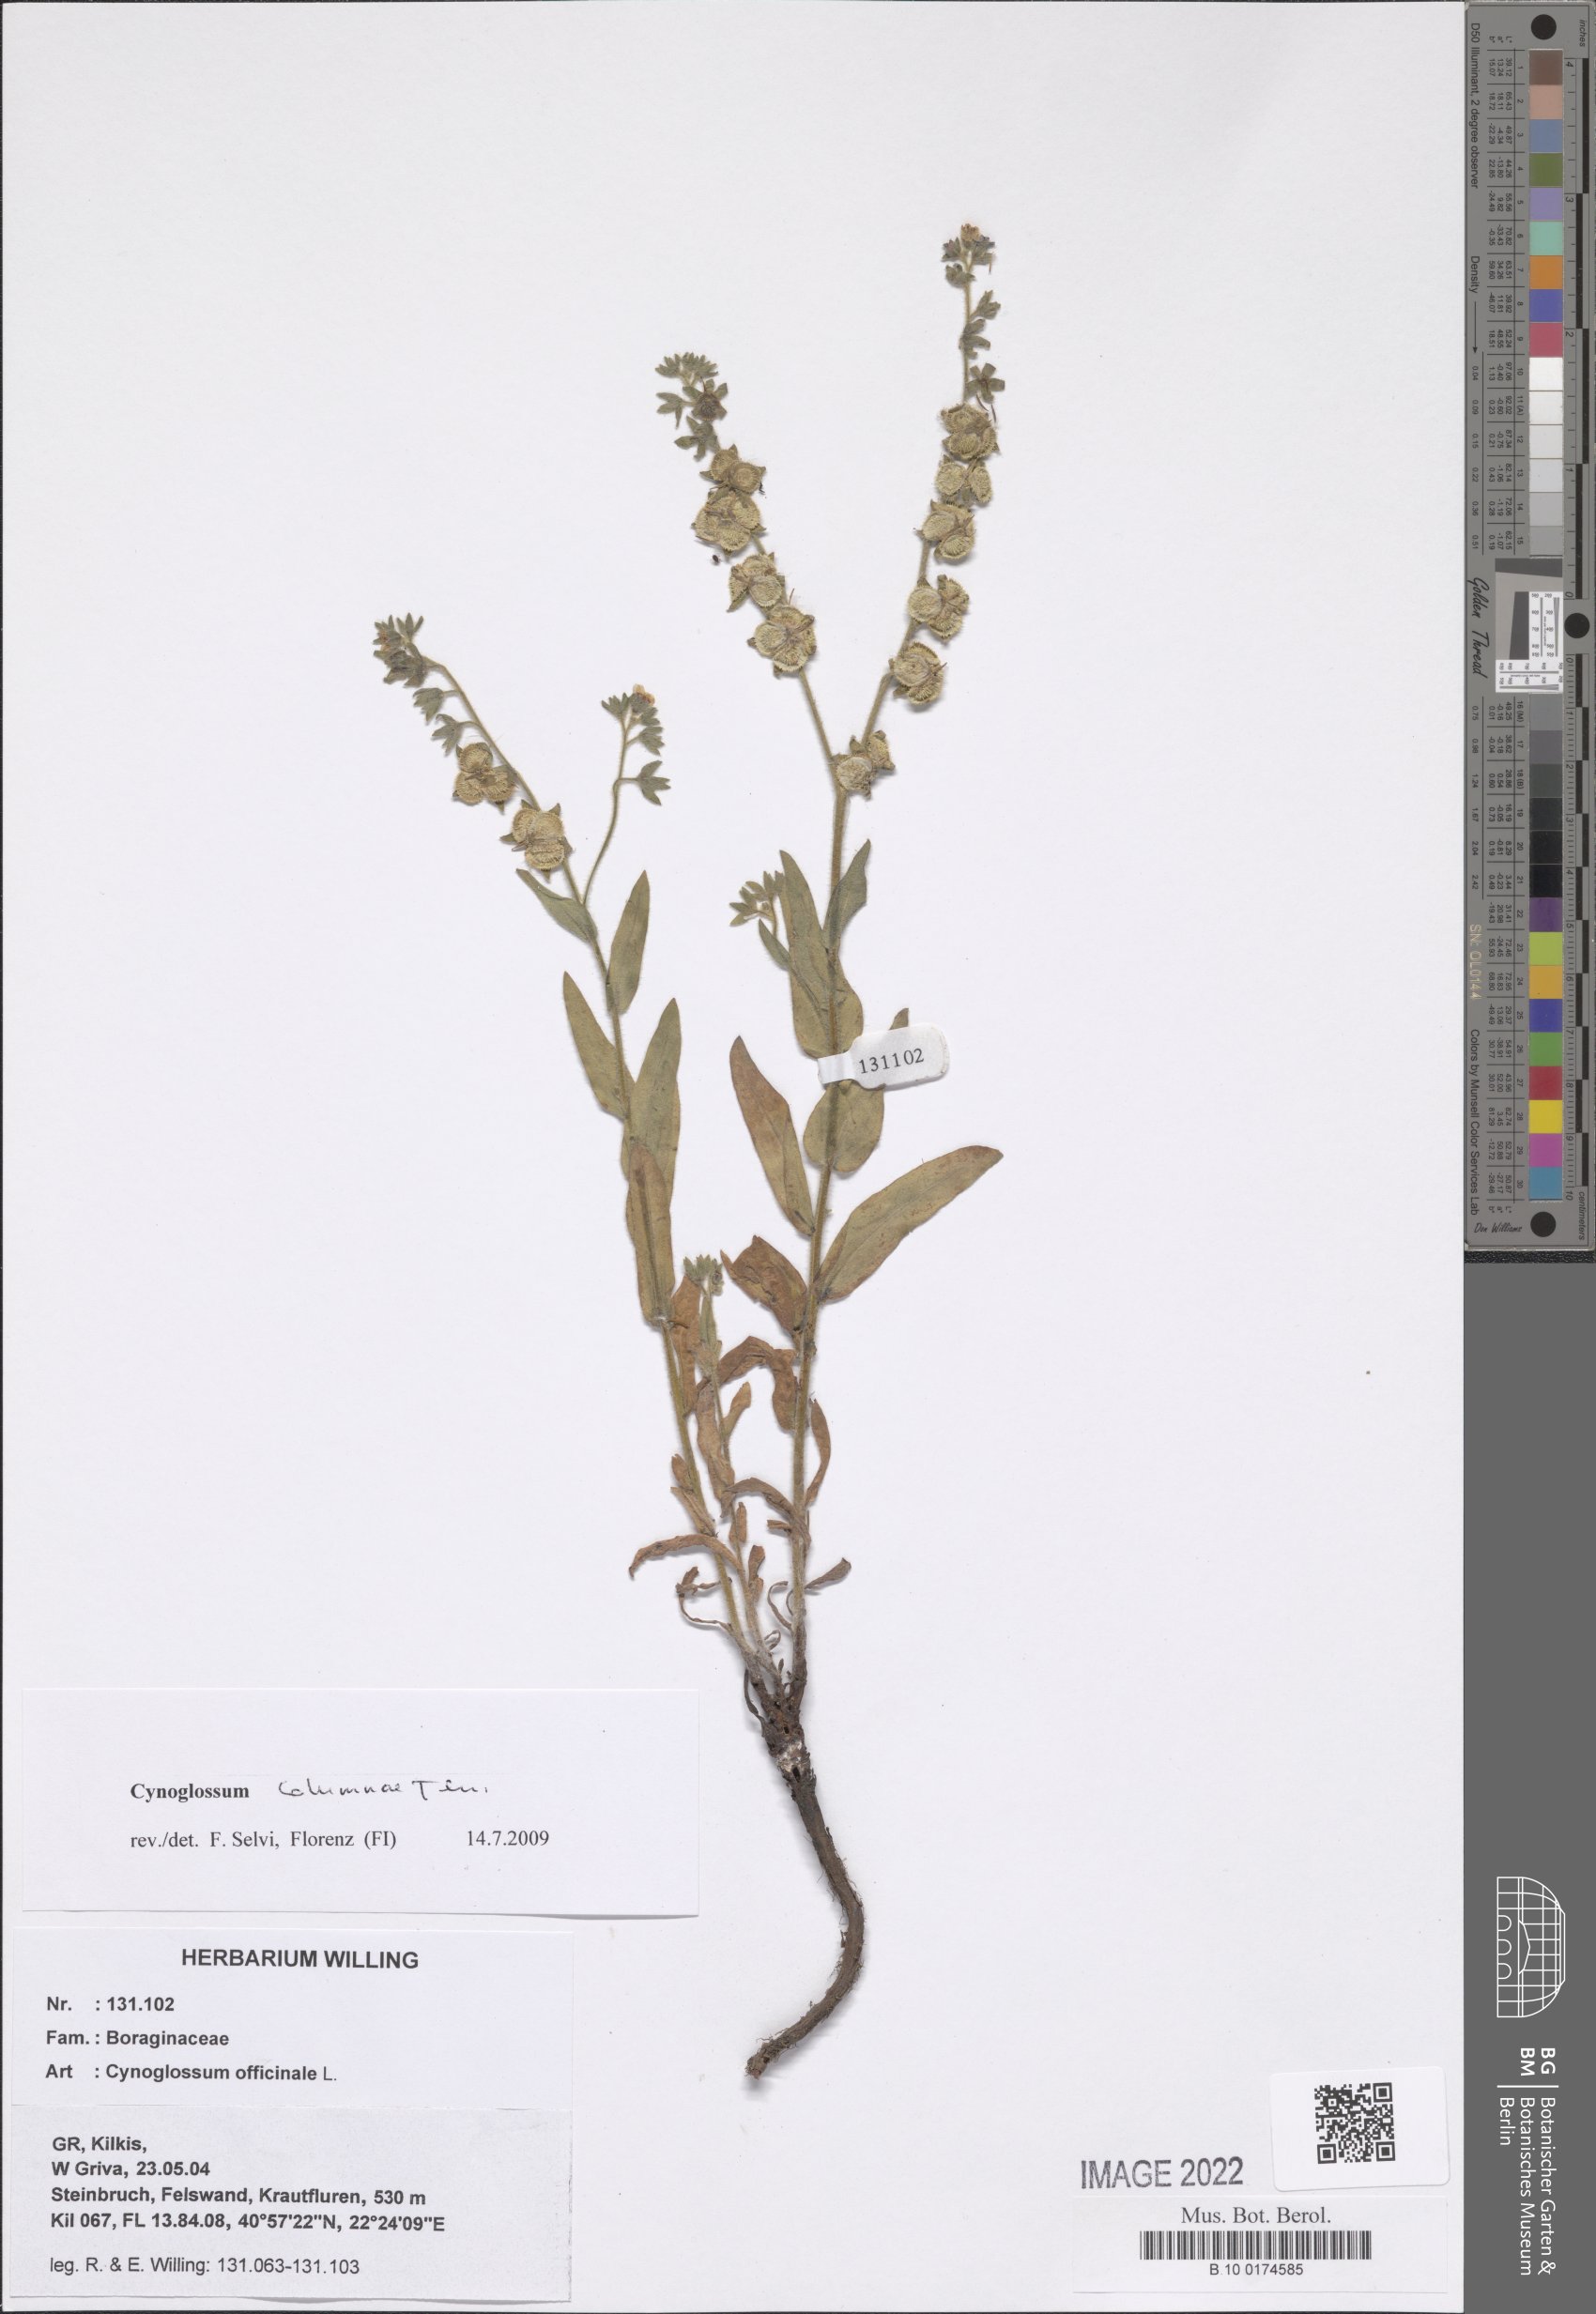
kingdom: Plantae
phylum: Tracheophyta
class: Magnoliopsida
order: Boraginales
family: Boraginaceae
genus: Rindera
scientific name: Rindera columnae
